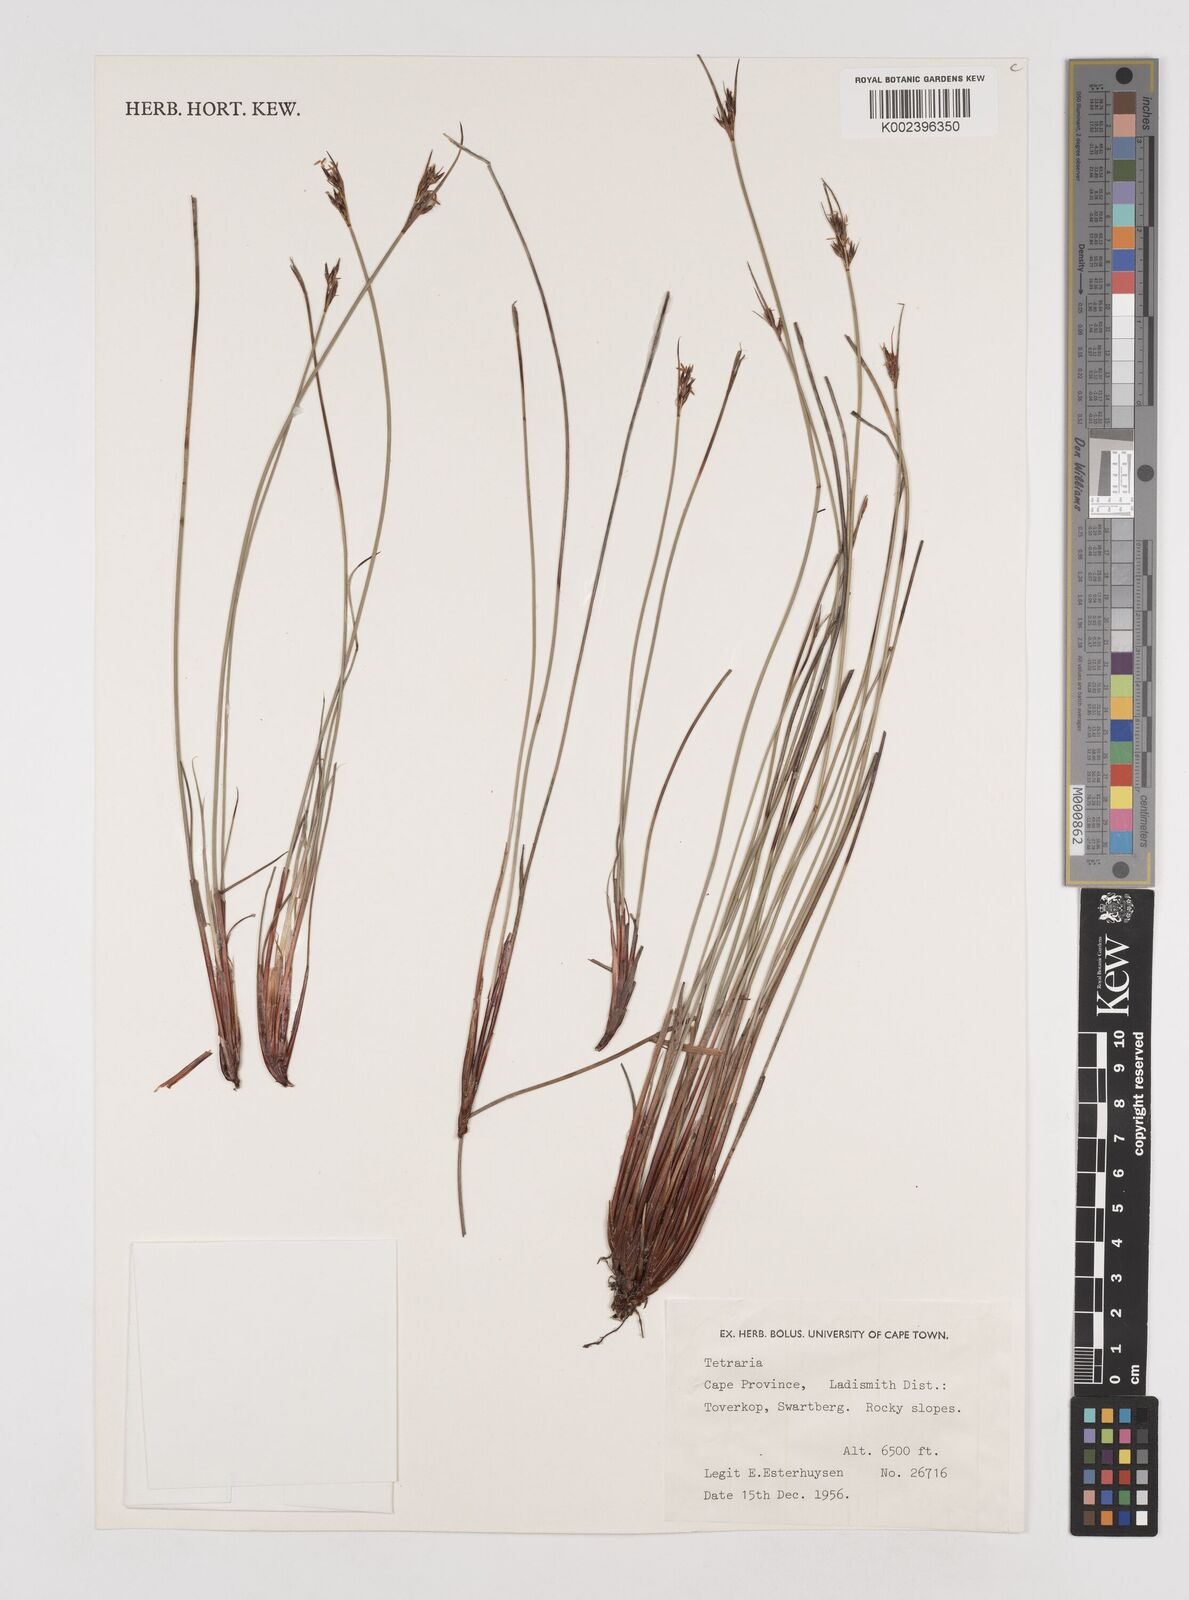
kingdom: Plantae
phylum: Tracheophyta
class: Liliopsida
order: Poales
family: Cyperaceae
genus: Tetraria
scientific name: Tetraria
